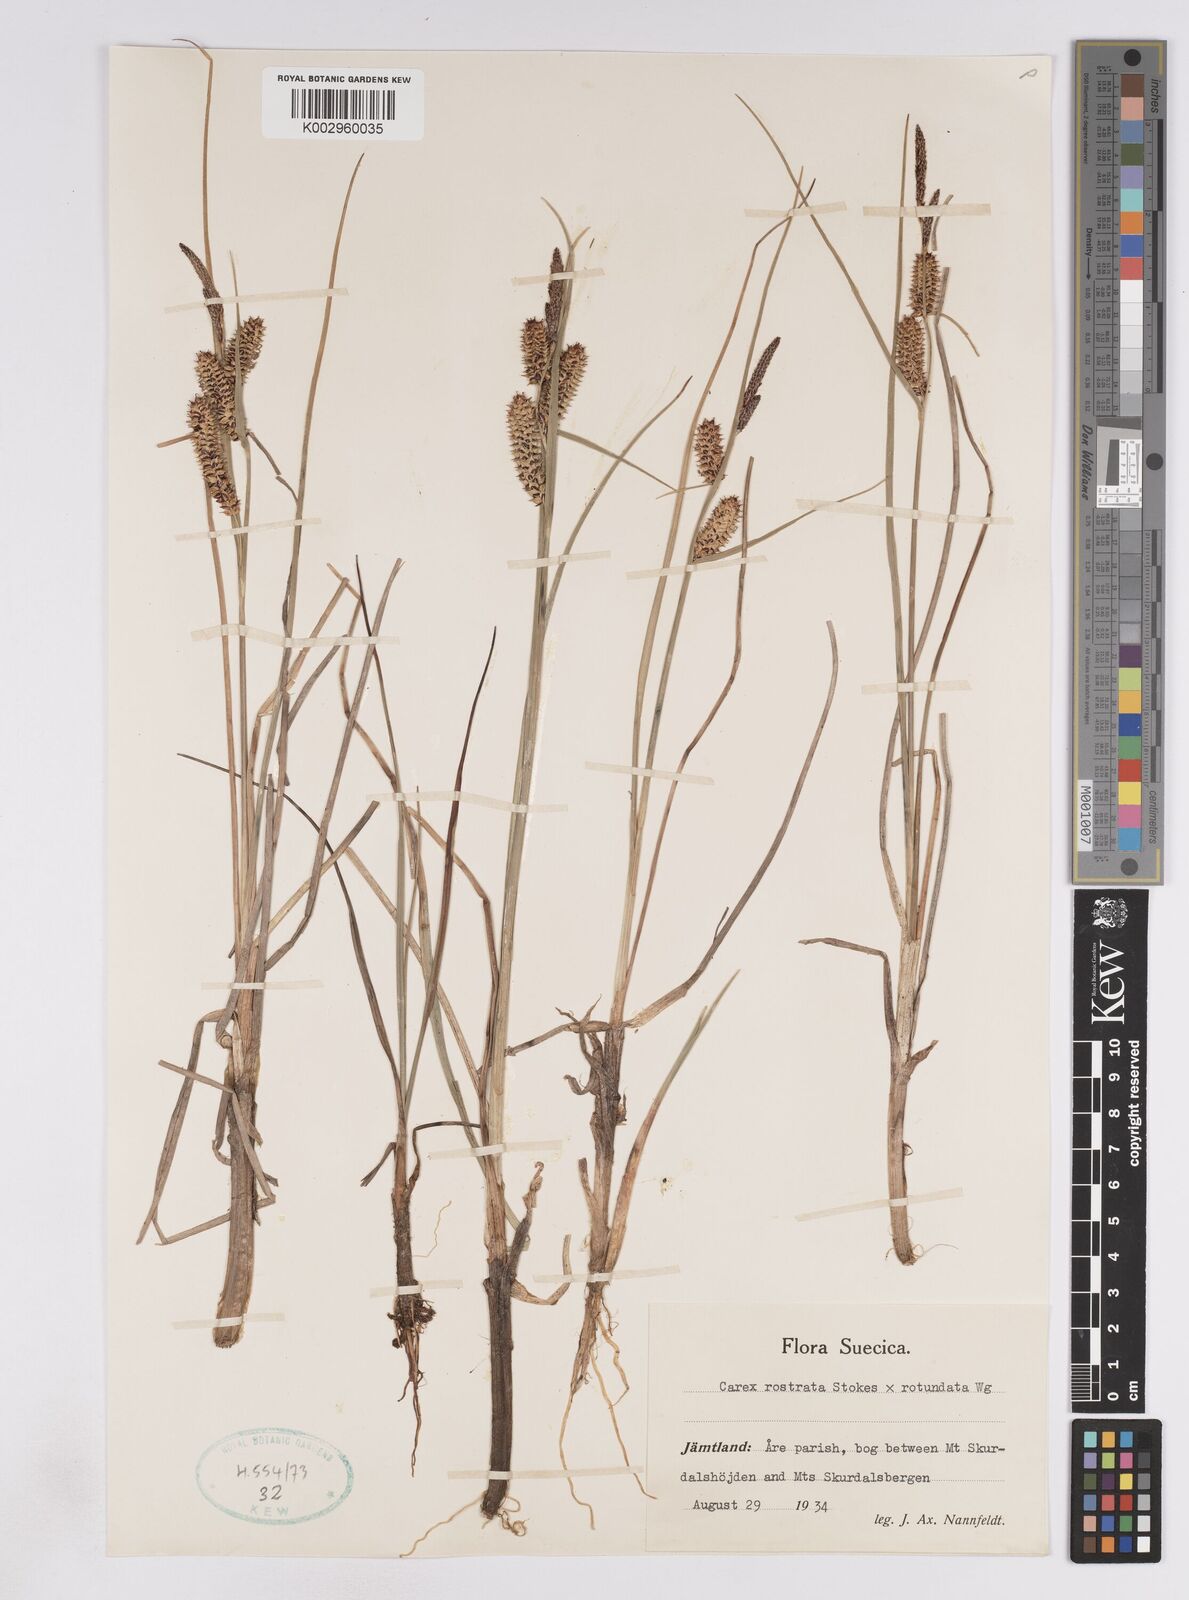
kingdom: Plantae
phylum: Tracheophyta
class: Liliopsida
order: Poales
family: Cyperaceae
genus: Carex
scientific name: Carex
